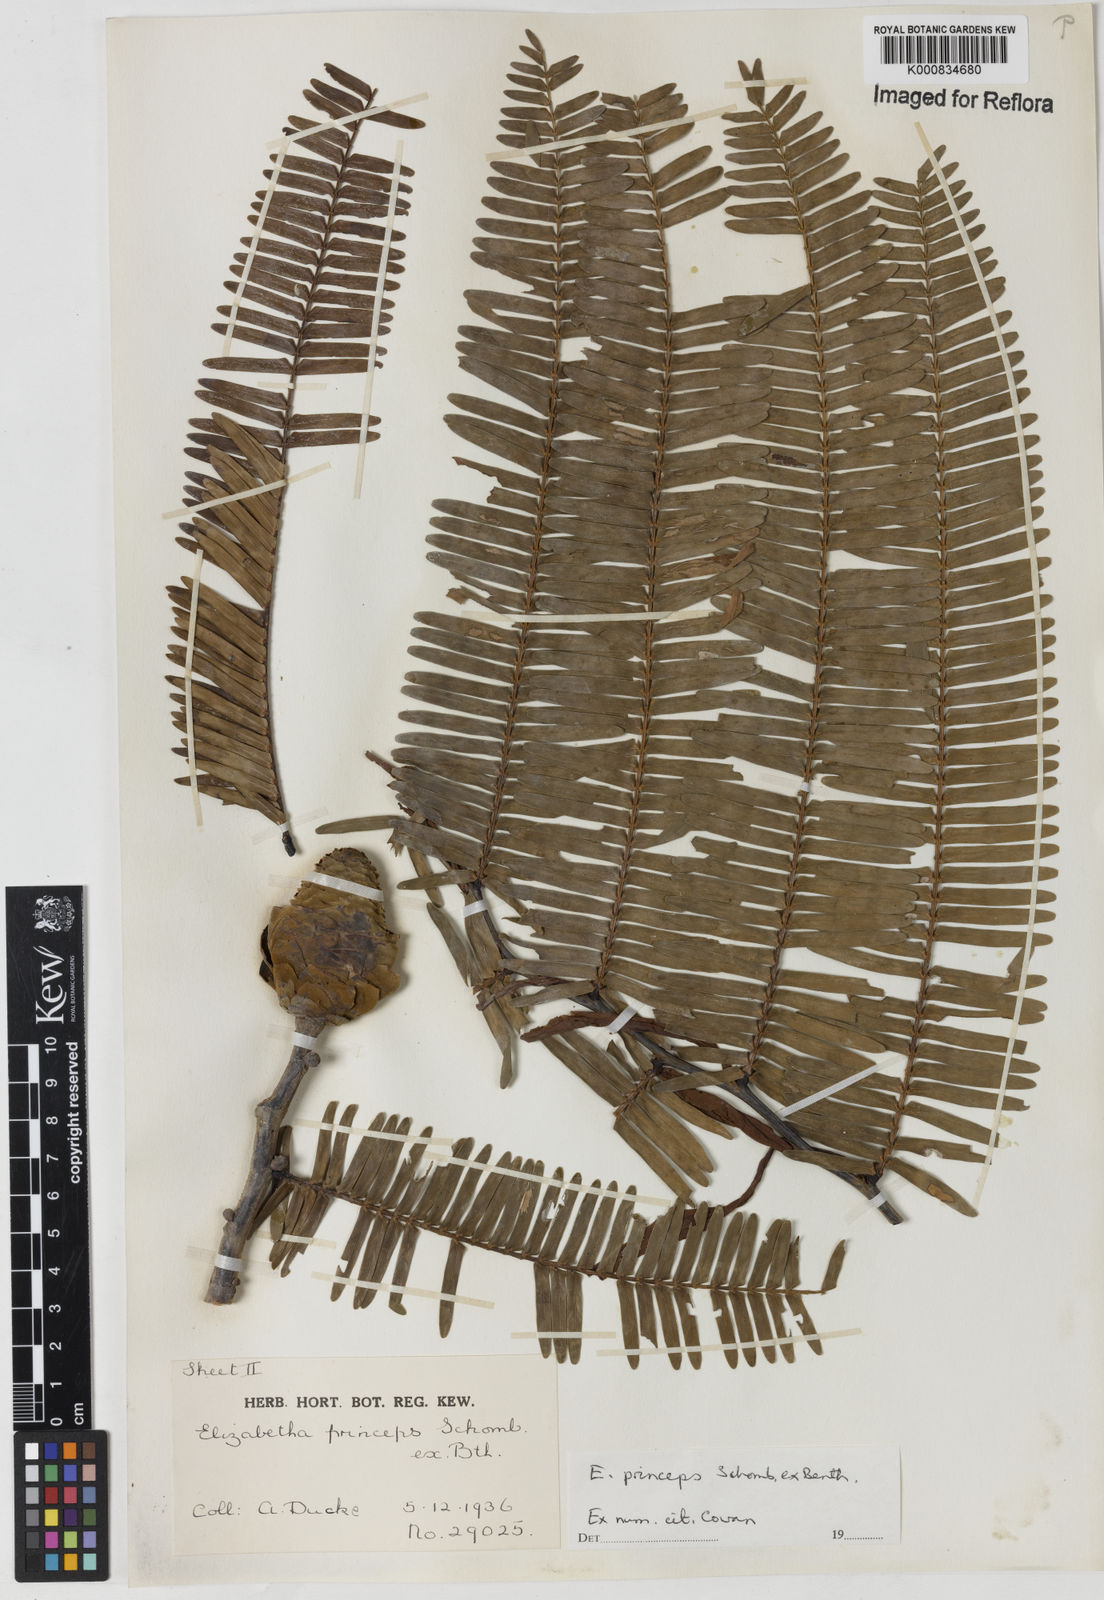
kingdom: Plantae
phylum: Tracheophyta
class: Magnoliopsida
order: Fabales
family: Fabaceae
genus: Paloue
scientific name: Paloue princeps
